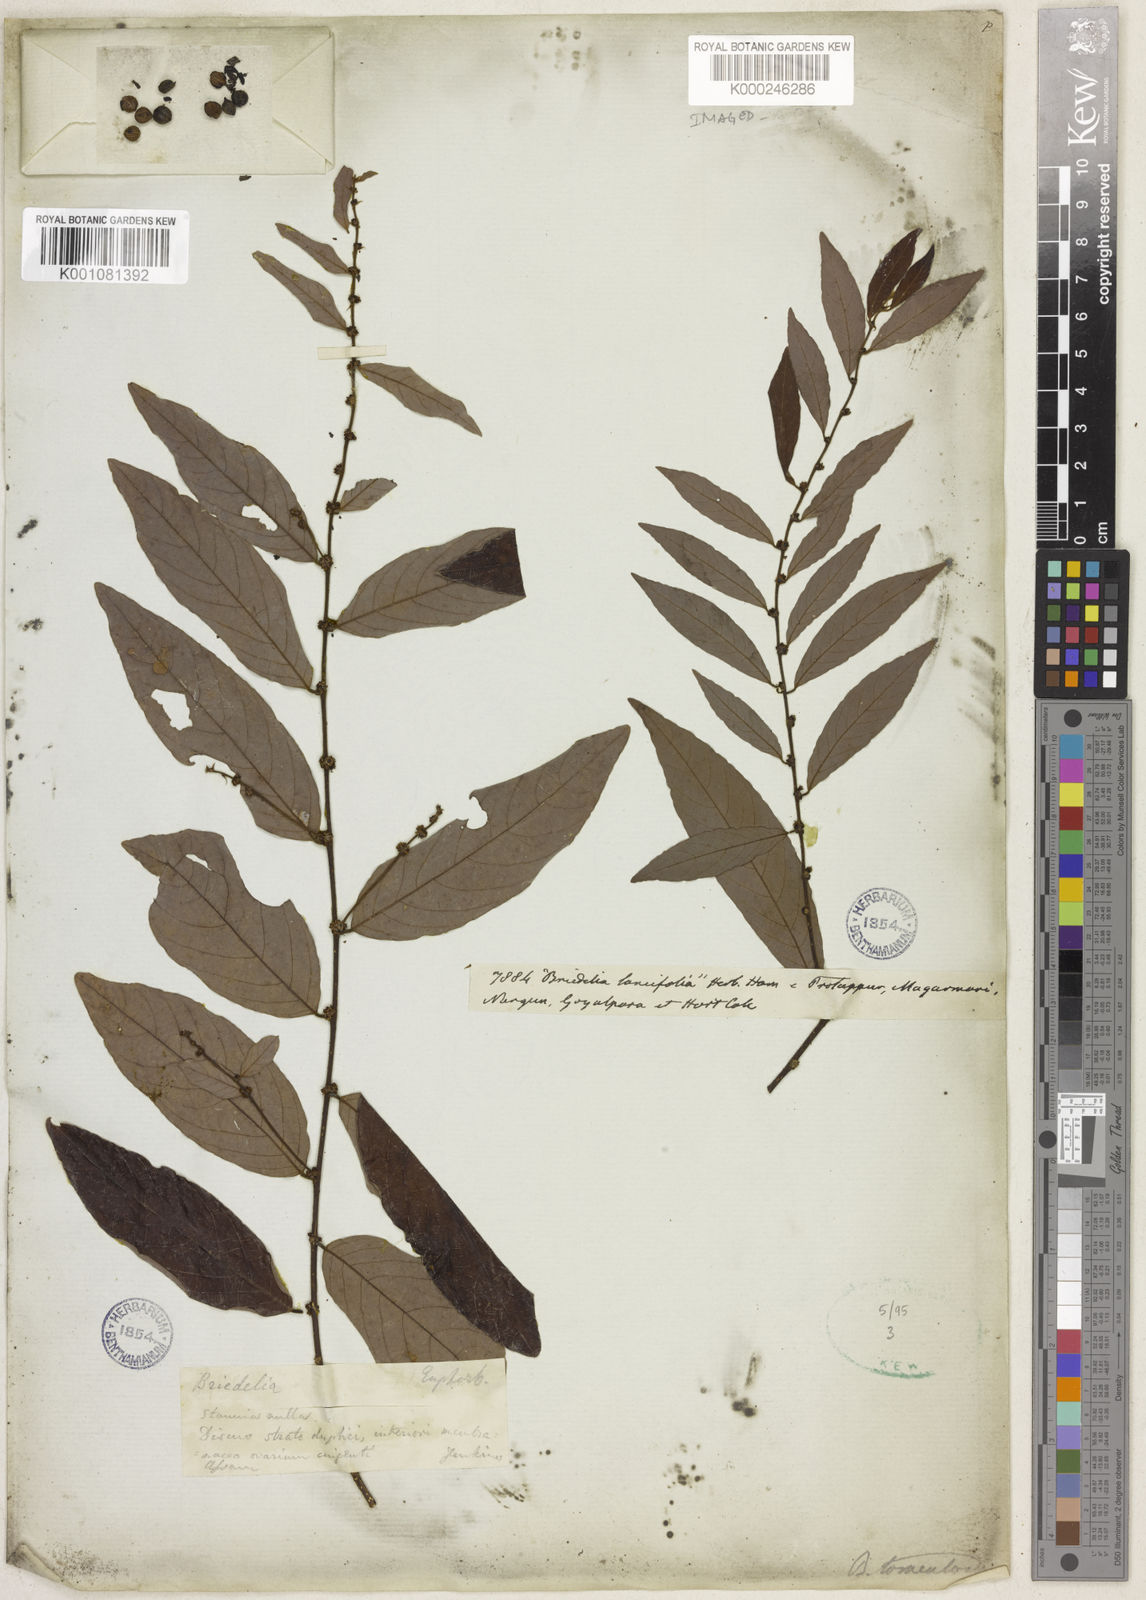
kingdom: Plantae
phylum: Tracheophyta
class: Magnoliopsida
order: Malpighiales
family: Phyllanthaceae
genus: Bridelia
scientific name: Bridelia tomentosa
